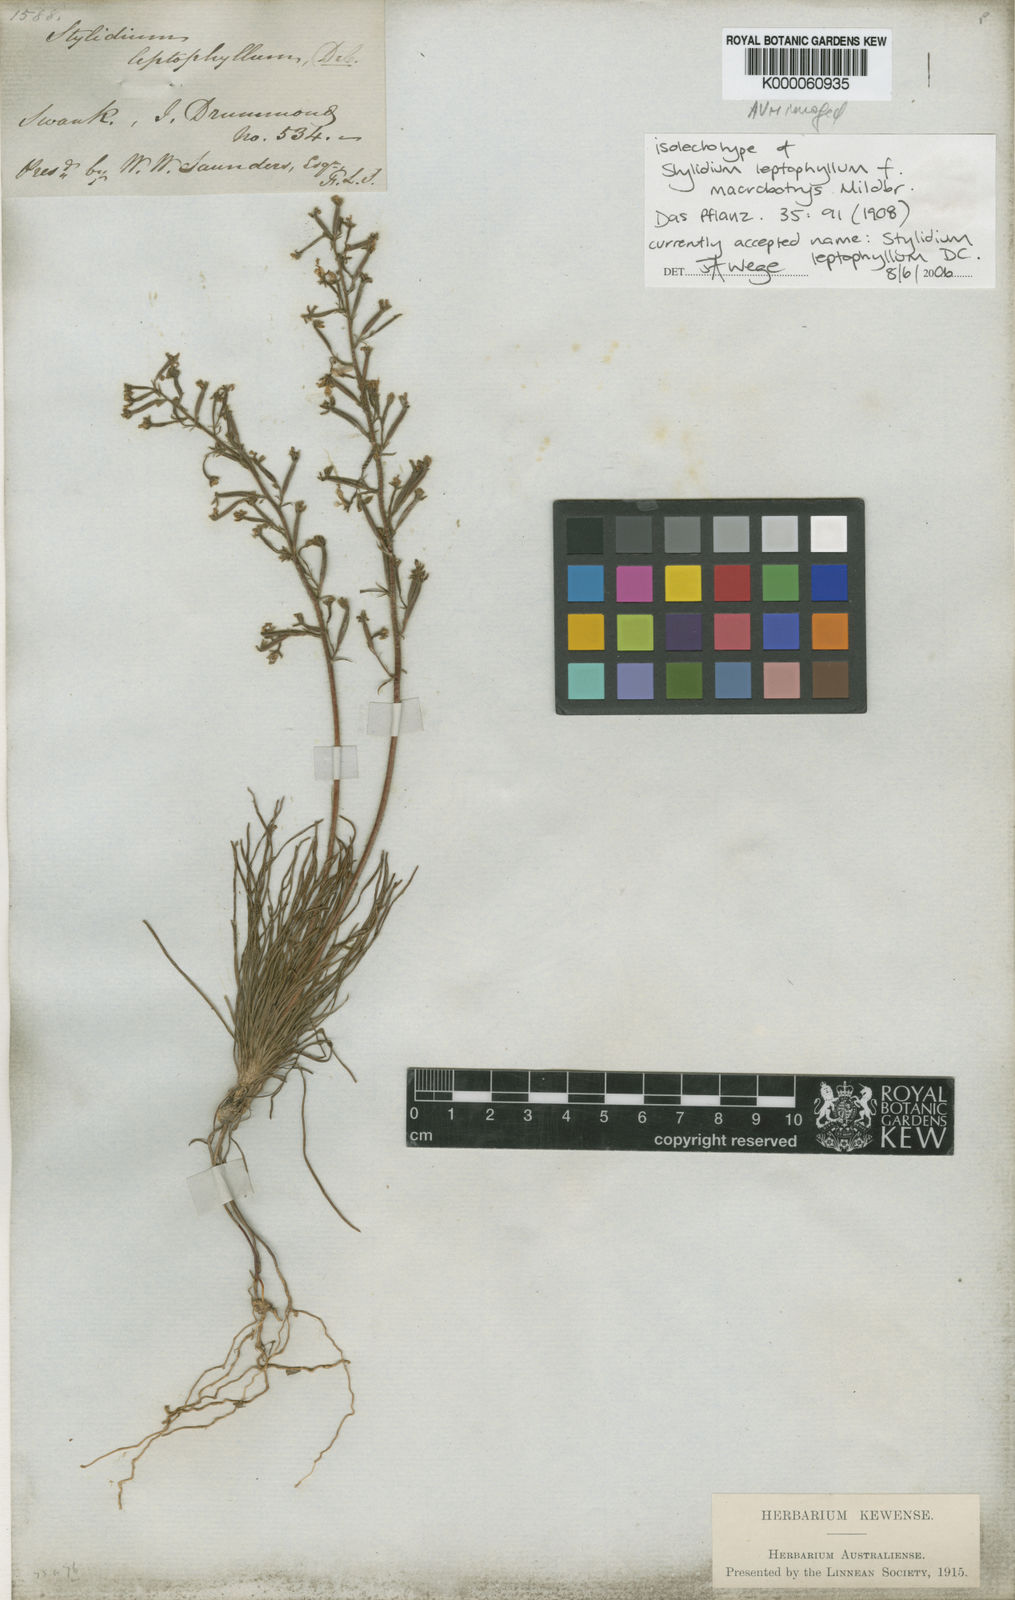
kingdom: Plantae
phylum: Tracheophyta
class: Magnoliopsida
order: Asterales
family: Stylidiaceae
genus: Stylidium
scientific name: Stylidium leptophyllum
